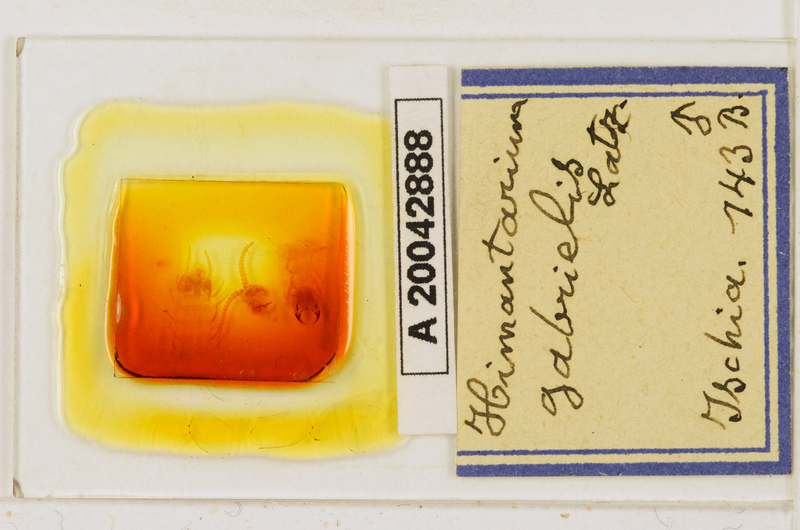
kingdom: Animalia
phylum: Arthropoda
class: Chilopoda
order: Geophilomorpha
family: Himantariidae
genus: Himantarium
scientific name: Himantarium gabrielis
